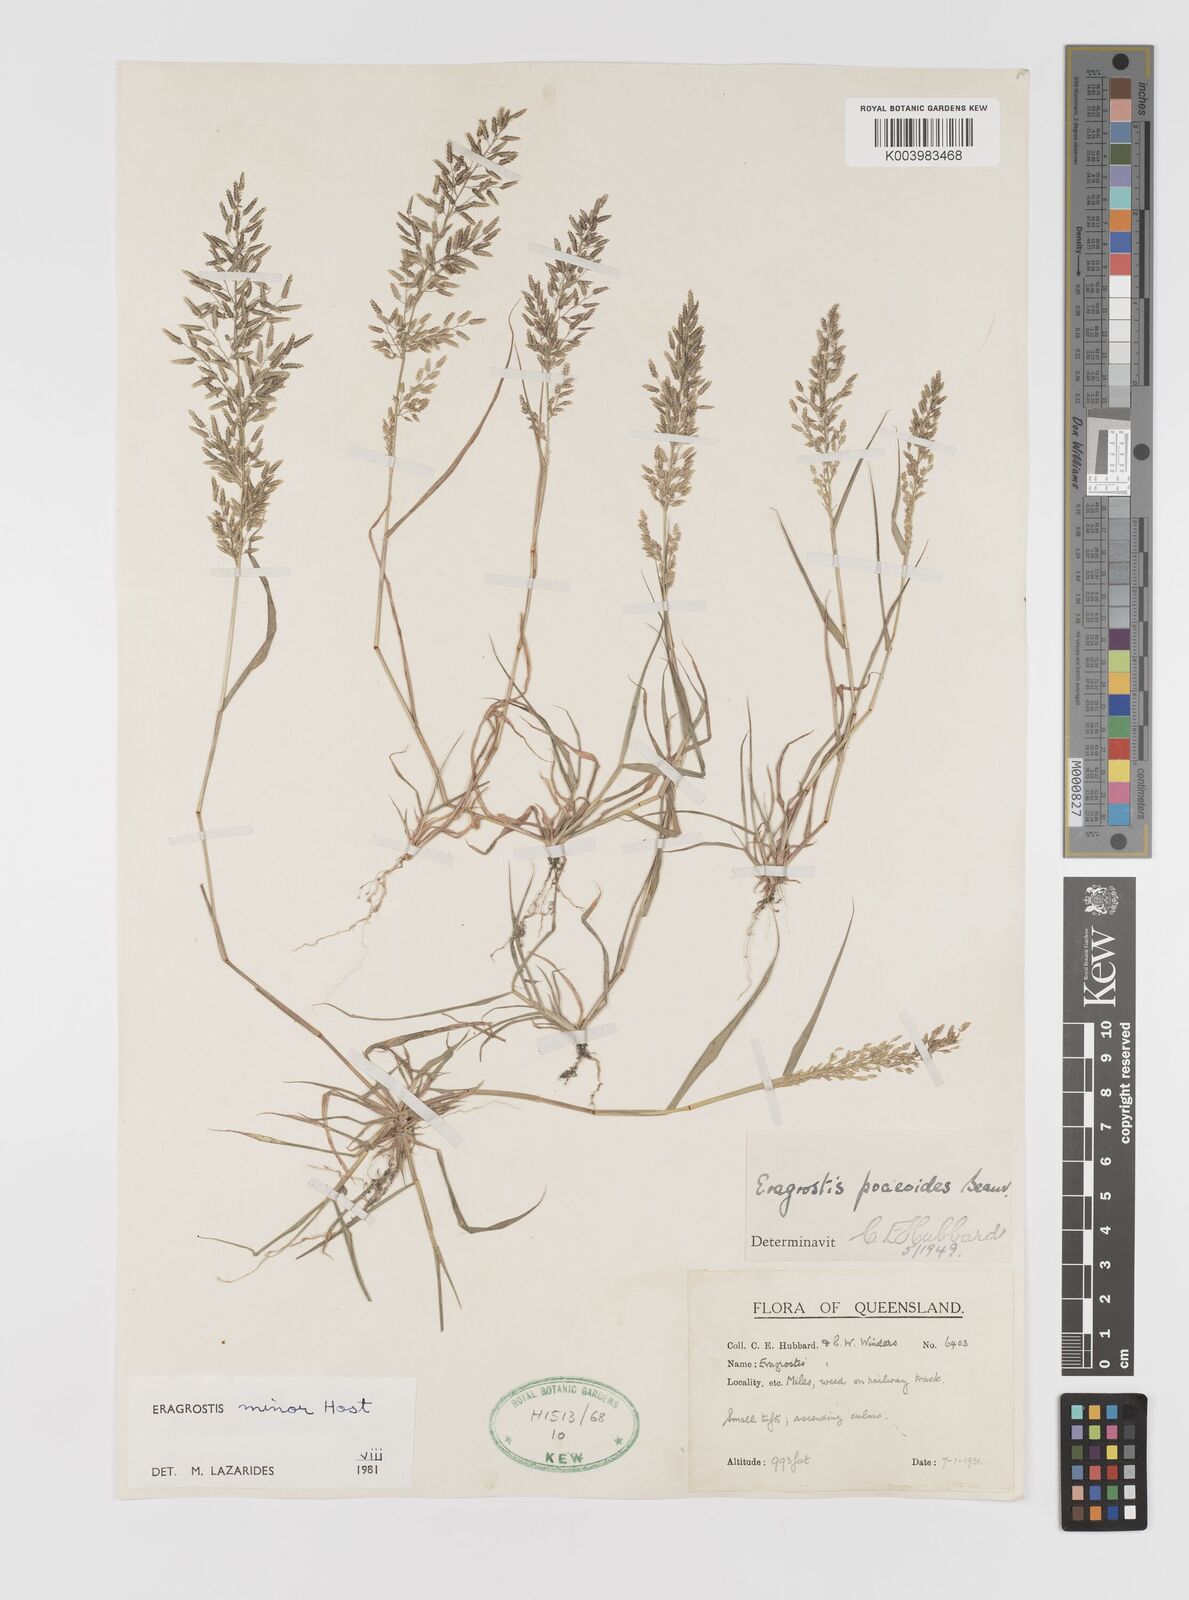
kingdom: Plantae
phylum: Tracheophyta
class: Liliopsida
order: Poales
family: Poaceae
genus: Eragrostis
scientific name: Eragrostis minor
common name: Small love-grass
